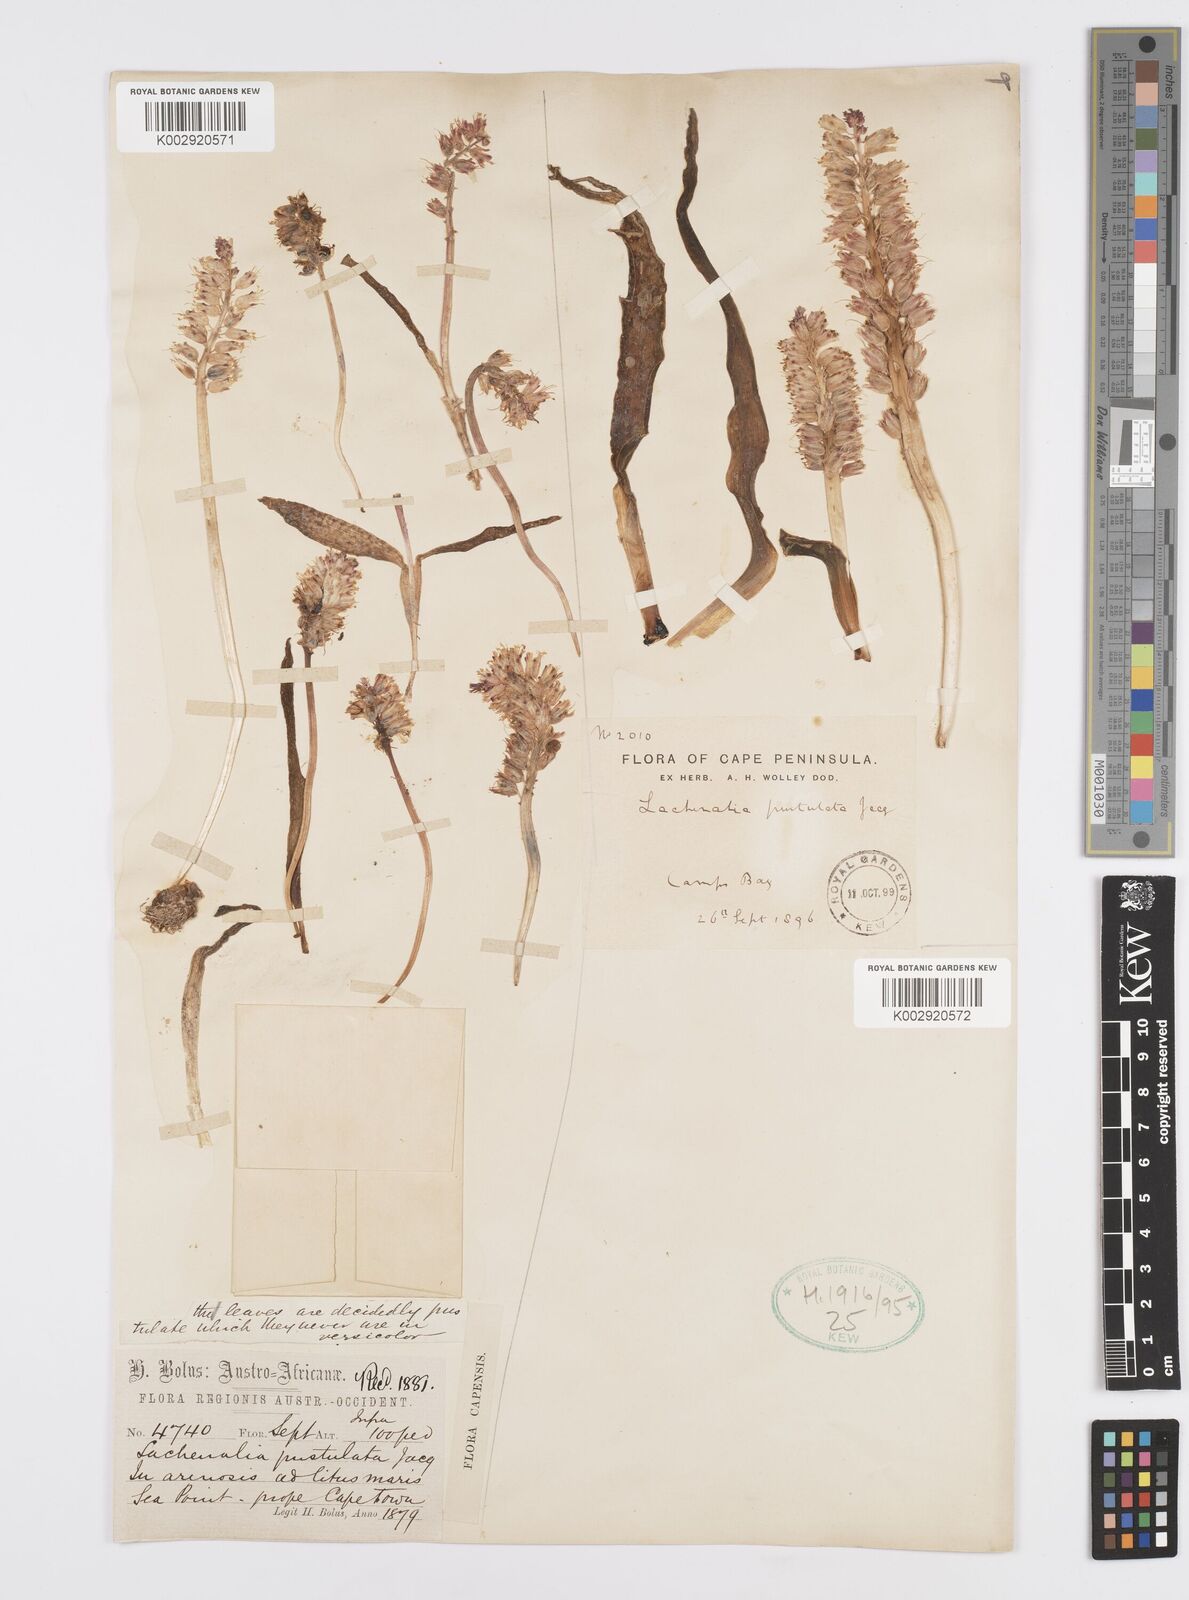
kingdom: Plantae
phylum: Tracheophyta
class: Liliopsida
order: Asparagales
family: Asparagaceae
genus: Lachenalia
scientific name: Lachenalia pallida
